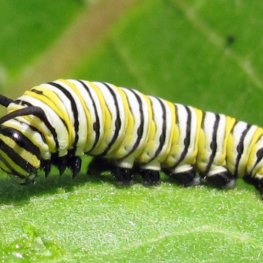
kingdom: Animalia
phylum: Arthropoda
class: Insecta
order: Lepidoptera
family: Nymphalidae
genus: Danaus
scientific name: Danaus plexippus
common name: Monarch
